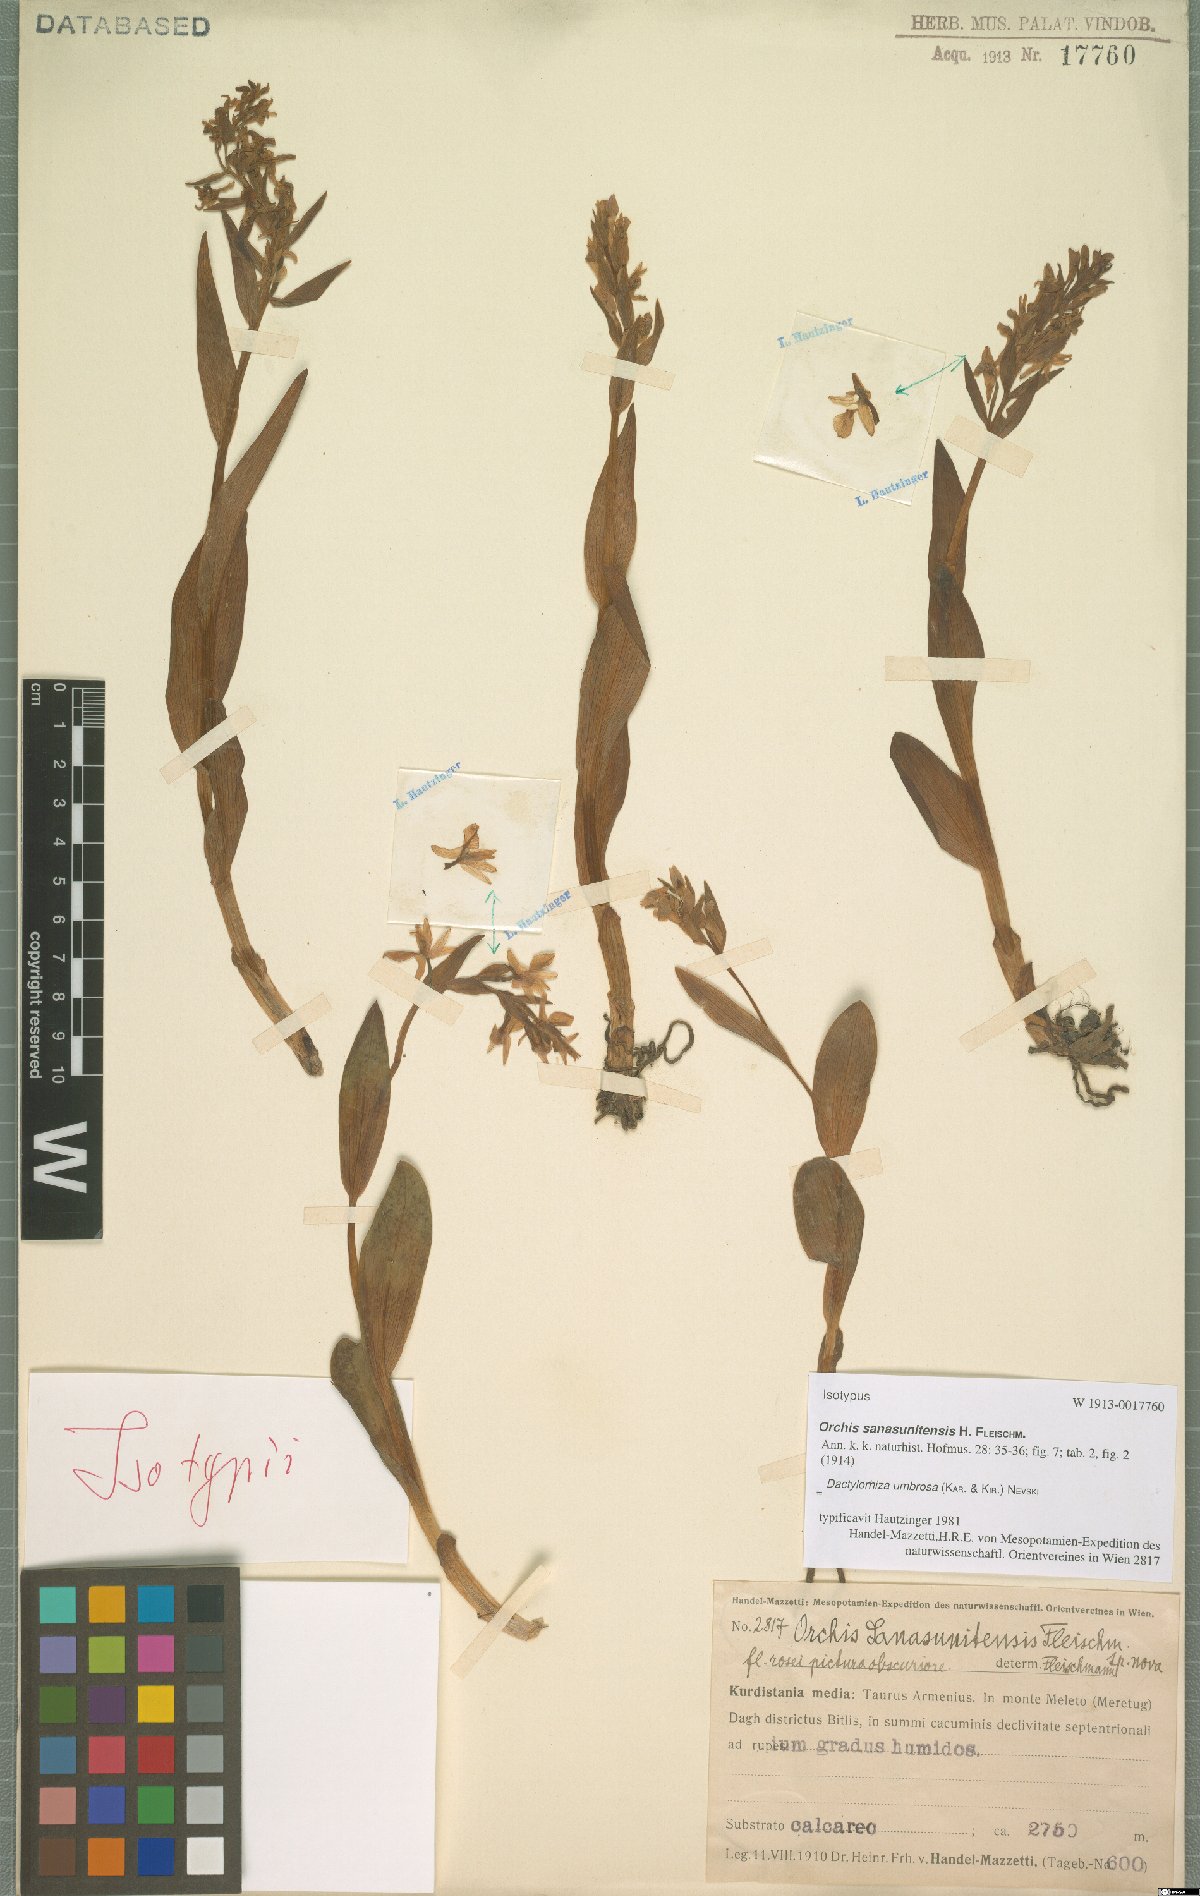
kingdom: Plantae
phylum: Tracheophyta
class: Liliopsida
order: Asparagales
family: Orchidaceae
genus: Dactylorhiza
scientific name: Dactylorhiza incarnata
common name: Early marsh-orchid
